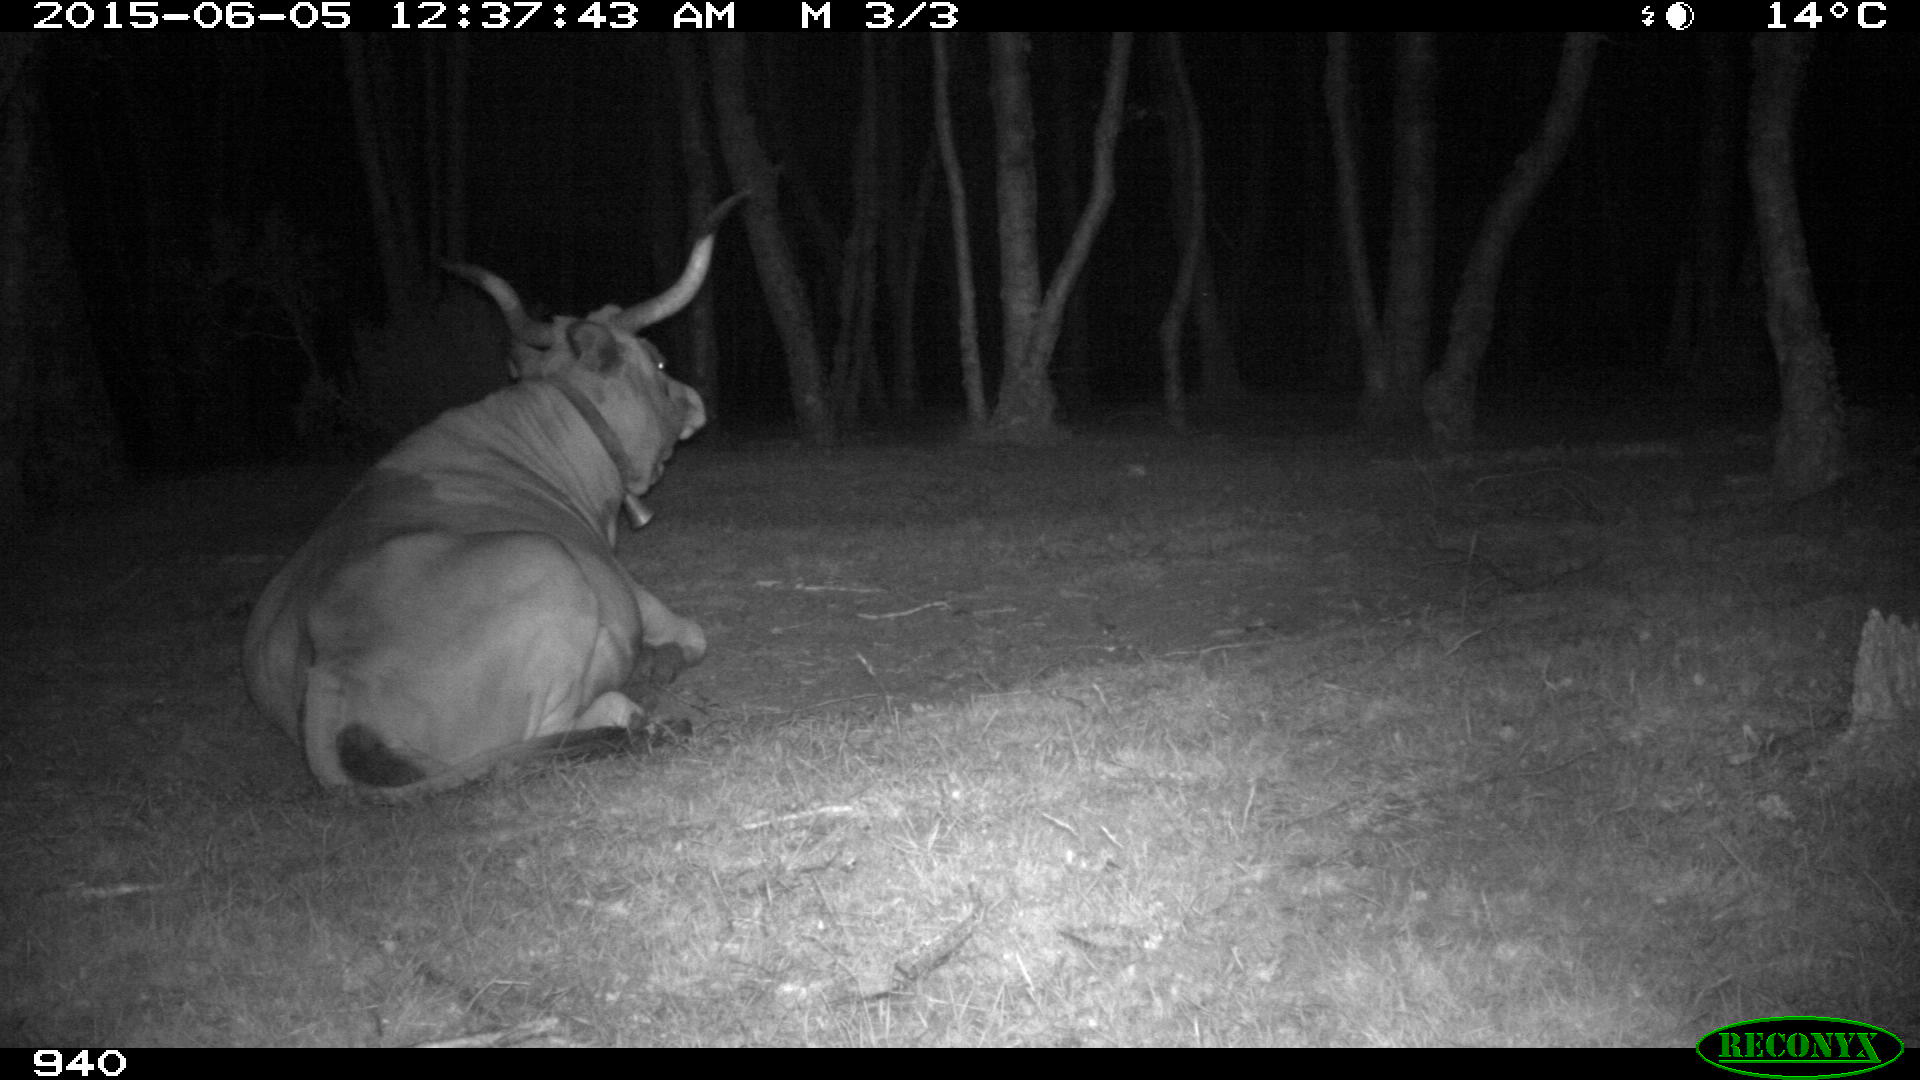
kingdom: Animalia
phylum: Chordata
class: Mammalia
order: Artiodactyla
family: Bovidae
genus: Bos
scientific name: Bos taurus
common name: Domesticated cattle
